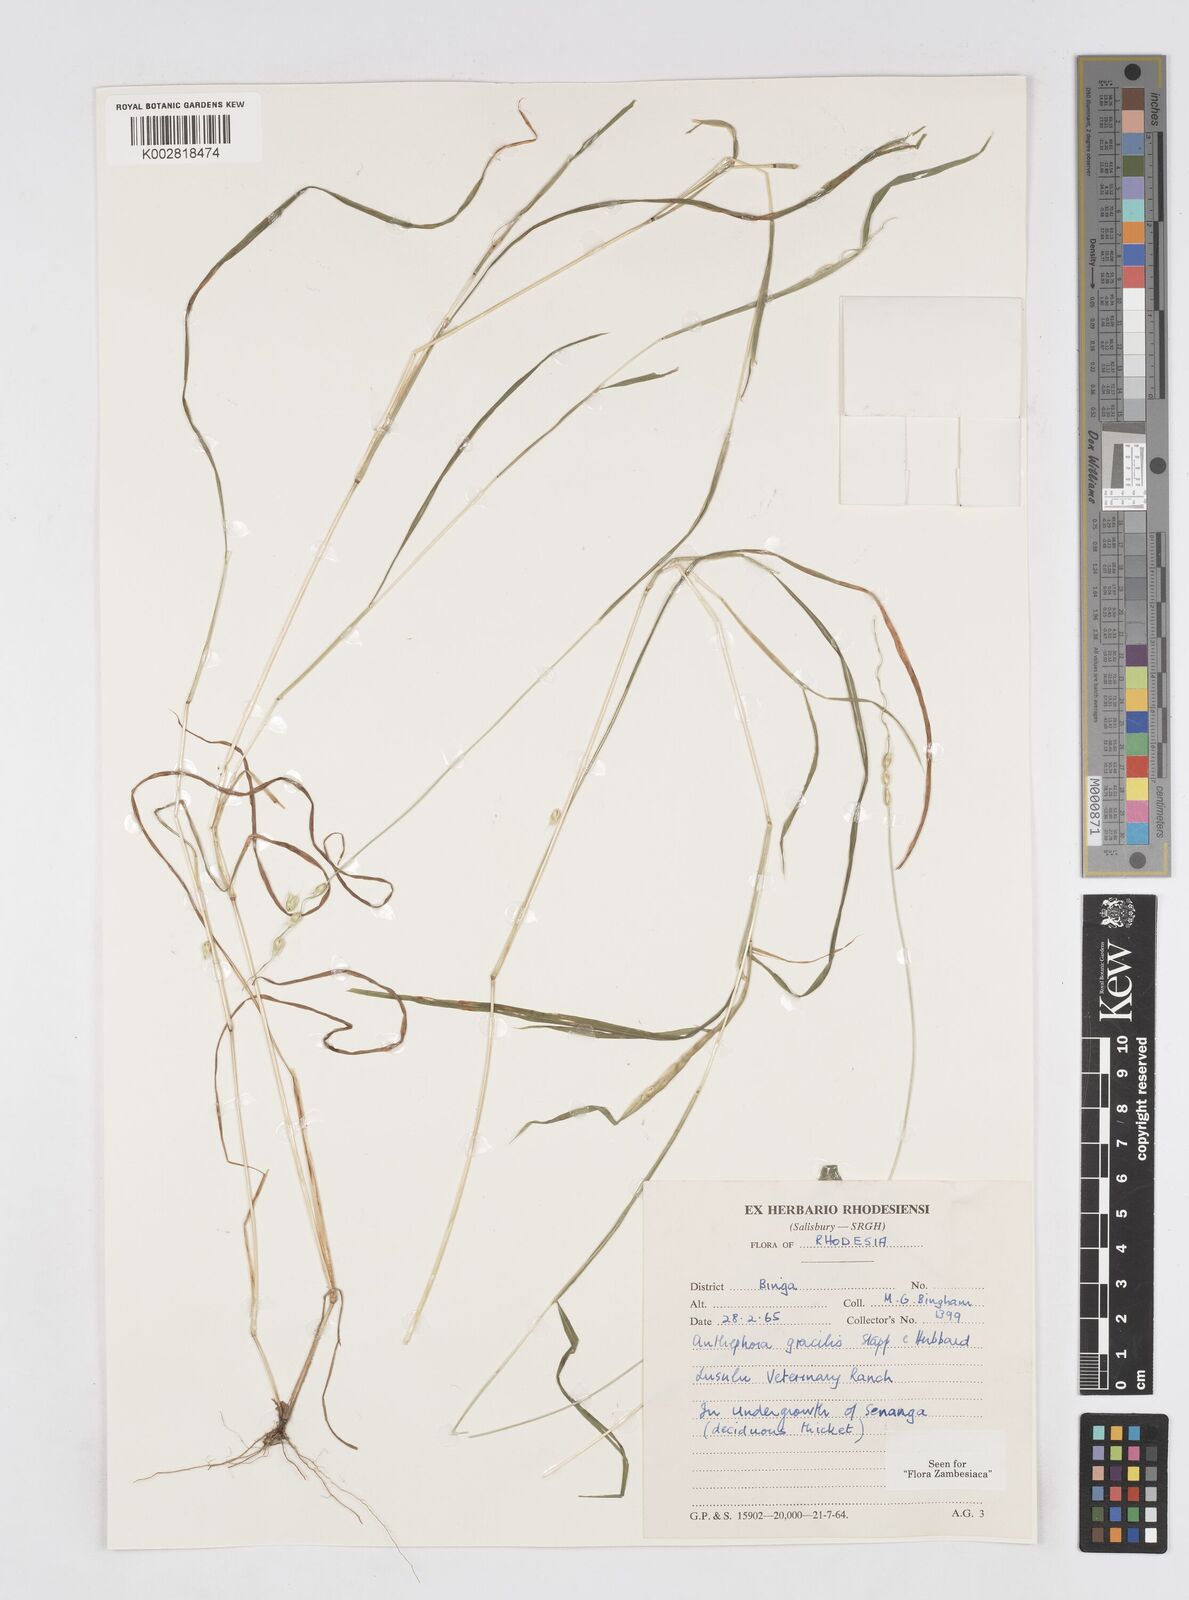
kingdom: Plantae
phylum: Tracheophyta
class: Liliopsida
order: Poales
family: Poaceae
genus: Anthephora
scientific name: Anthephora truncata
